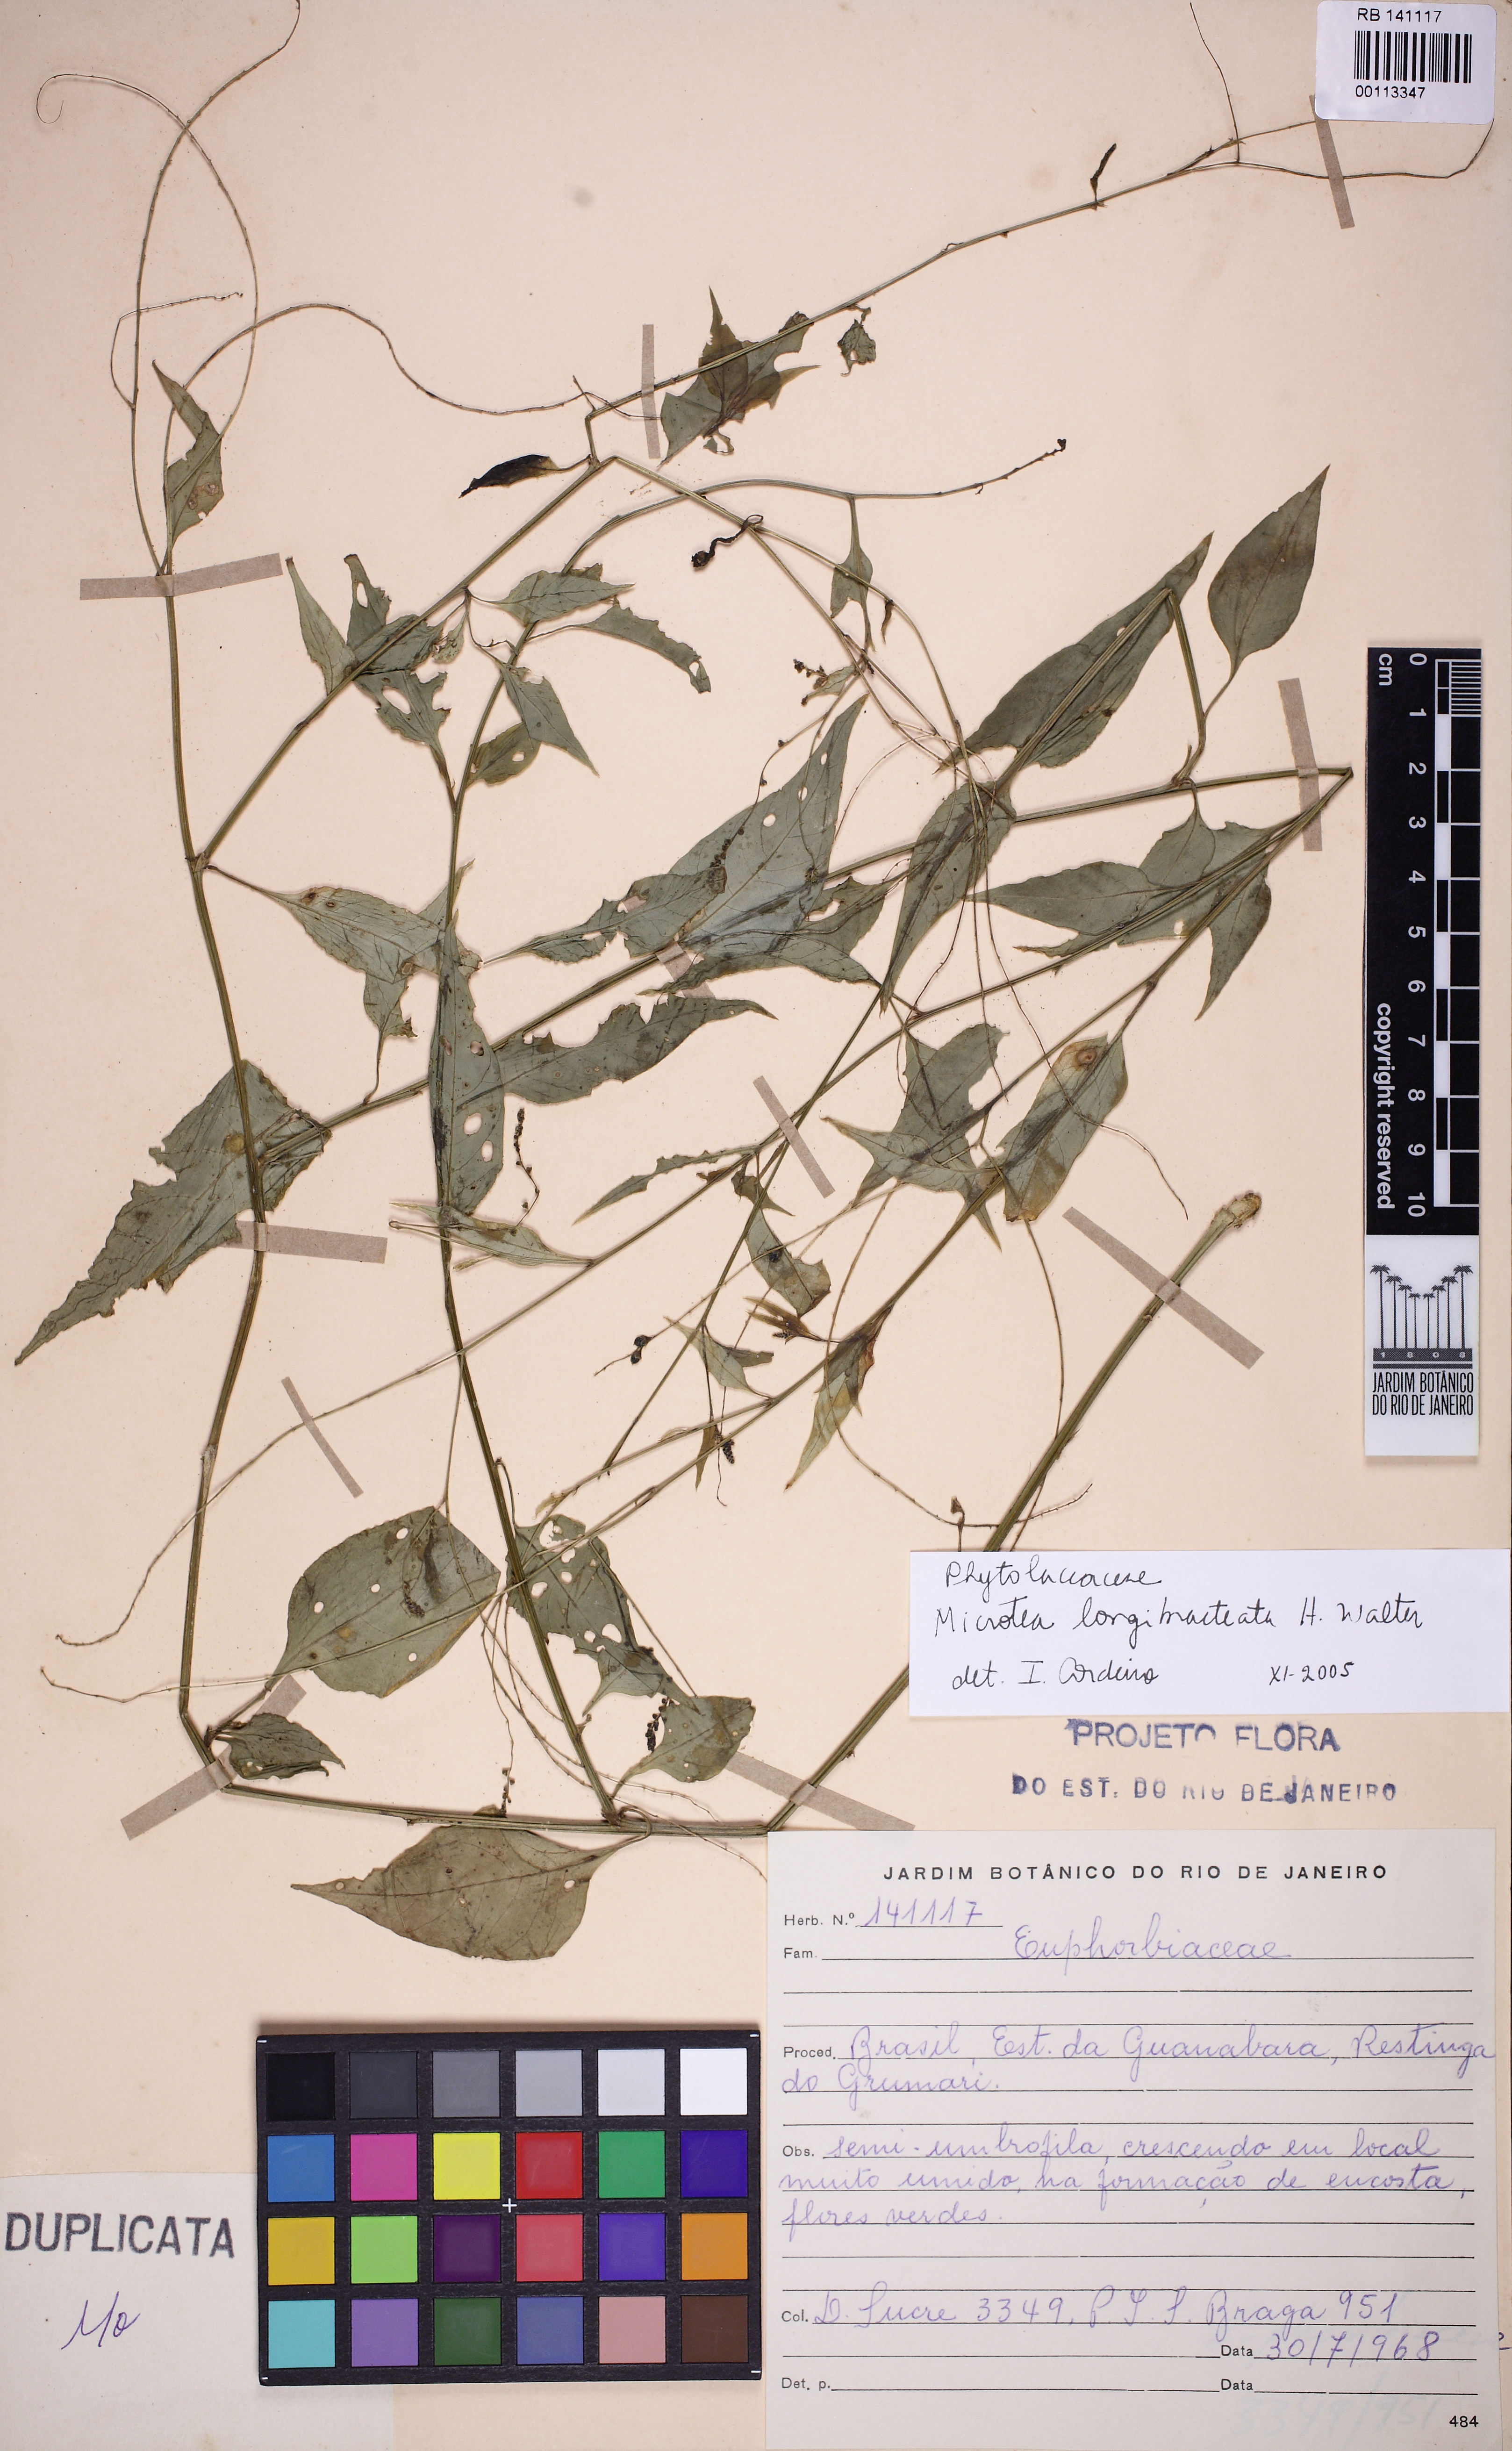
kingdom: Plantae
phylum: Tracheophyta
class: Magnoliopsida
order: Malpighiales
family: Euphorbiaceae
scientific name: Euphorbiaceae
